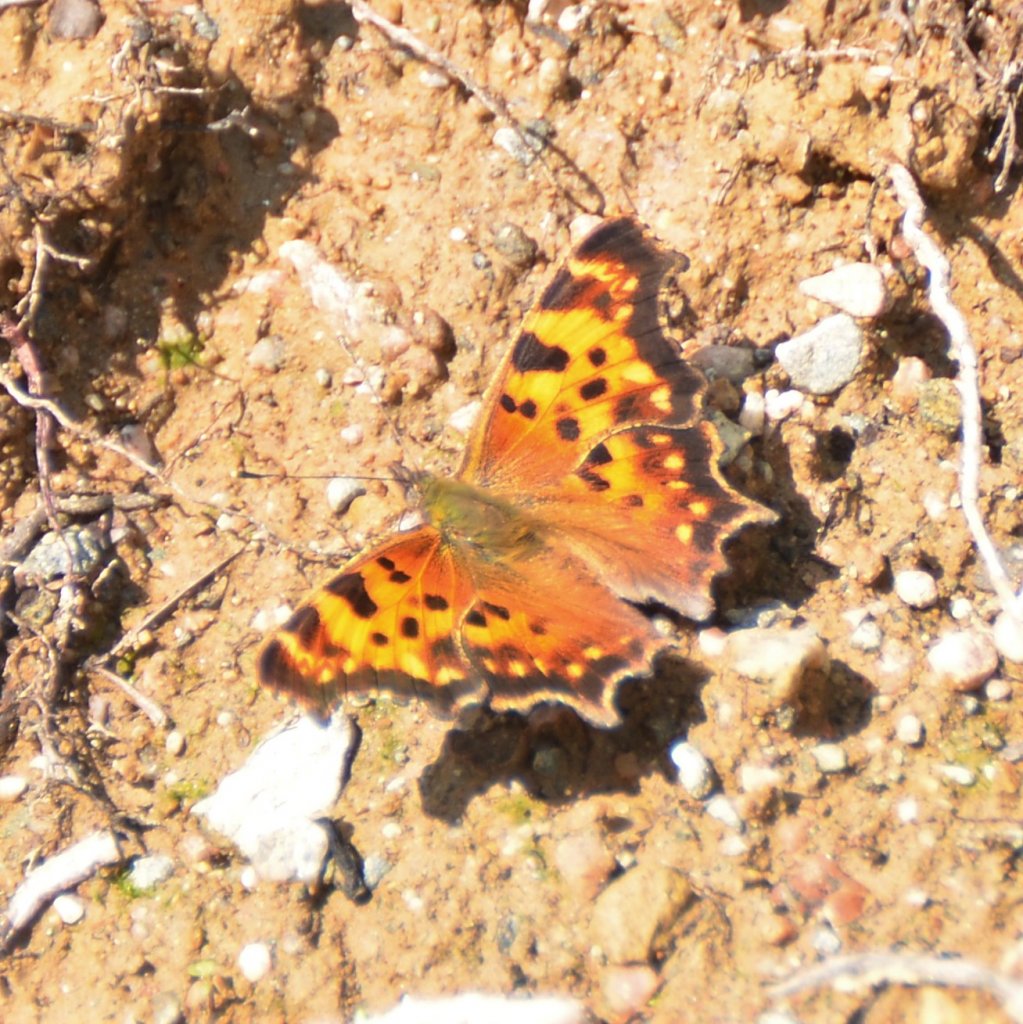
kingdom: Animalia
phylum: Arthropoda
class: Insecta
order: Lepidoptera
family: Nymphalidae
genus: Polygonia
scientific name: Polygonia faunus
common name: Green Comma
